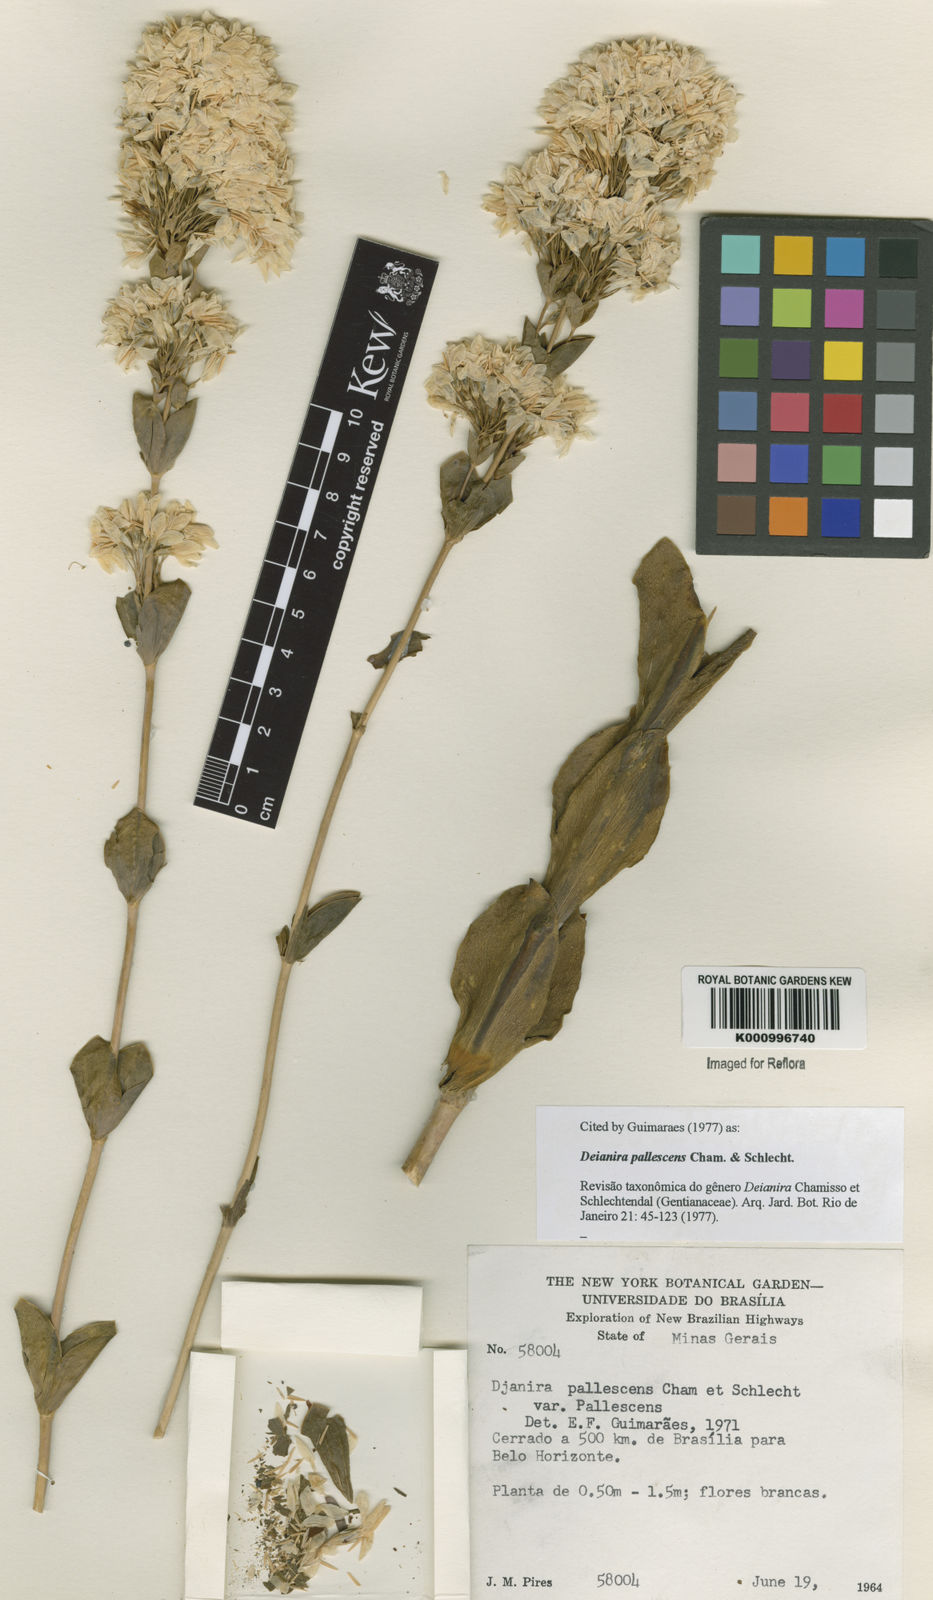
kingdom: Plantae
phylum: Tracheophyta
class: Magnoliopsida
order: Gentianales
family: Gentianaceae
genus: Deianira
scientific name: Deianira pallescens
